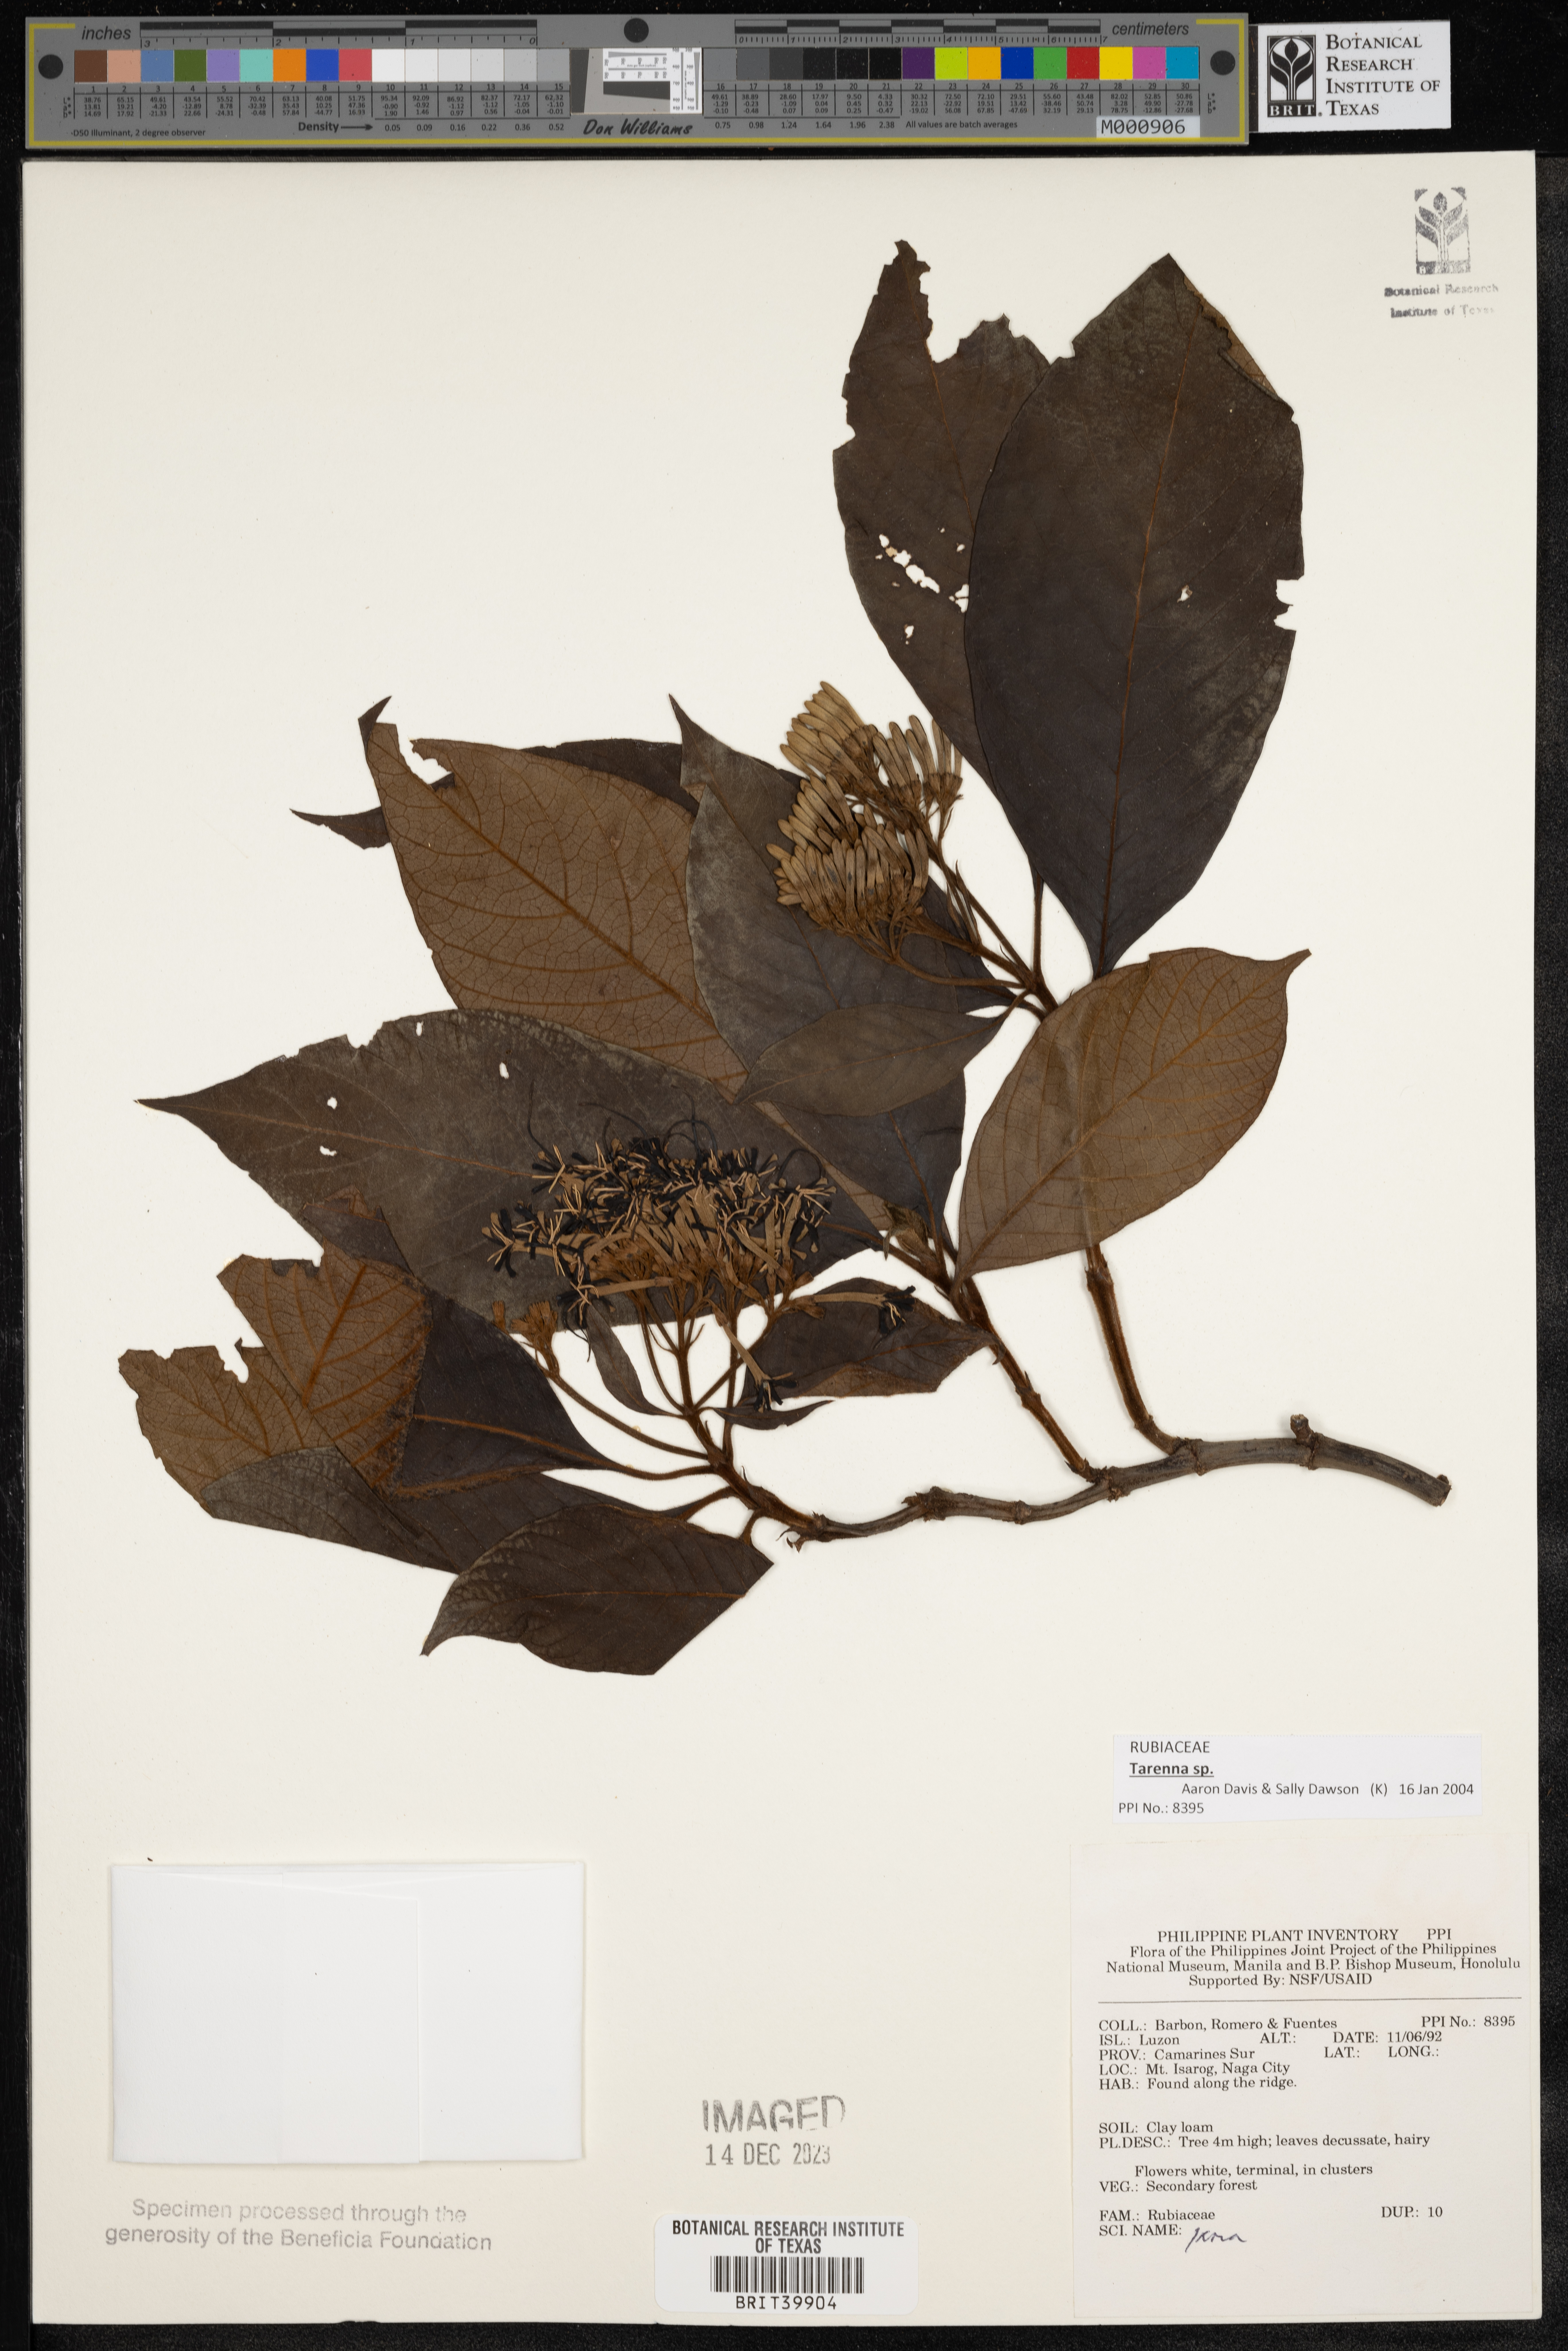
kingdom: Plantae
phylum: Tracheophyta
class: Magnoliopsida
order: Gentianales
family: Rubiaceae
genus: Ixora
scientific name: Ixora
